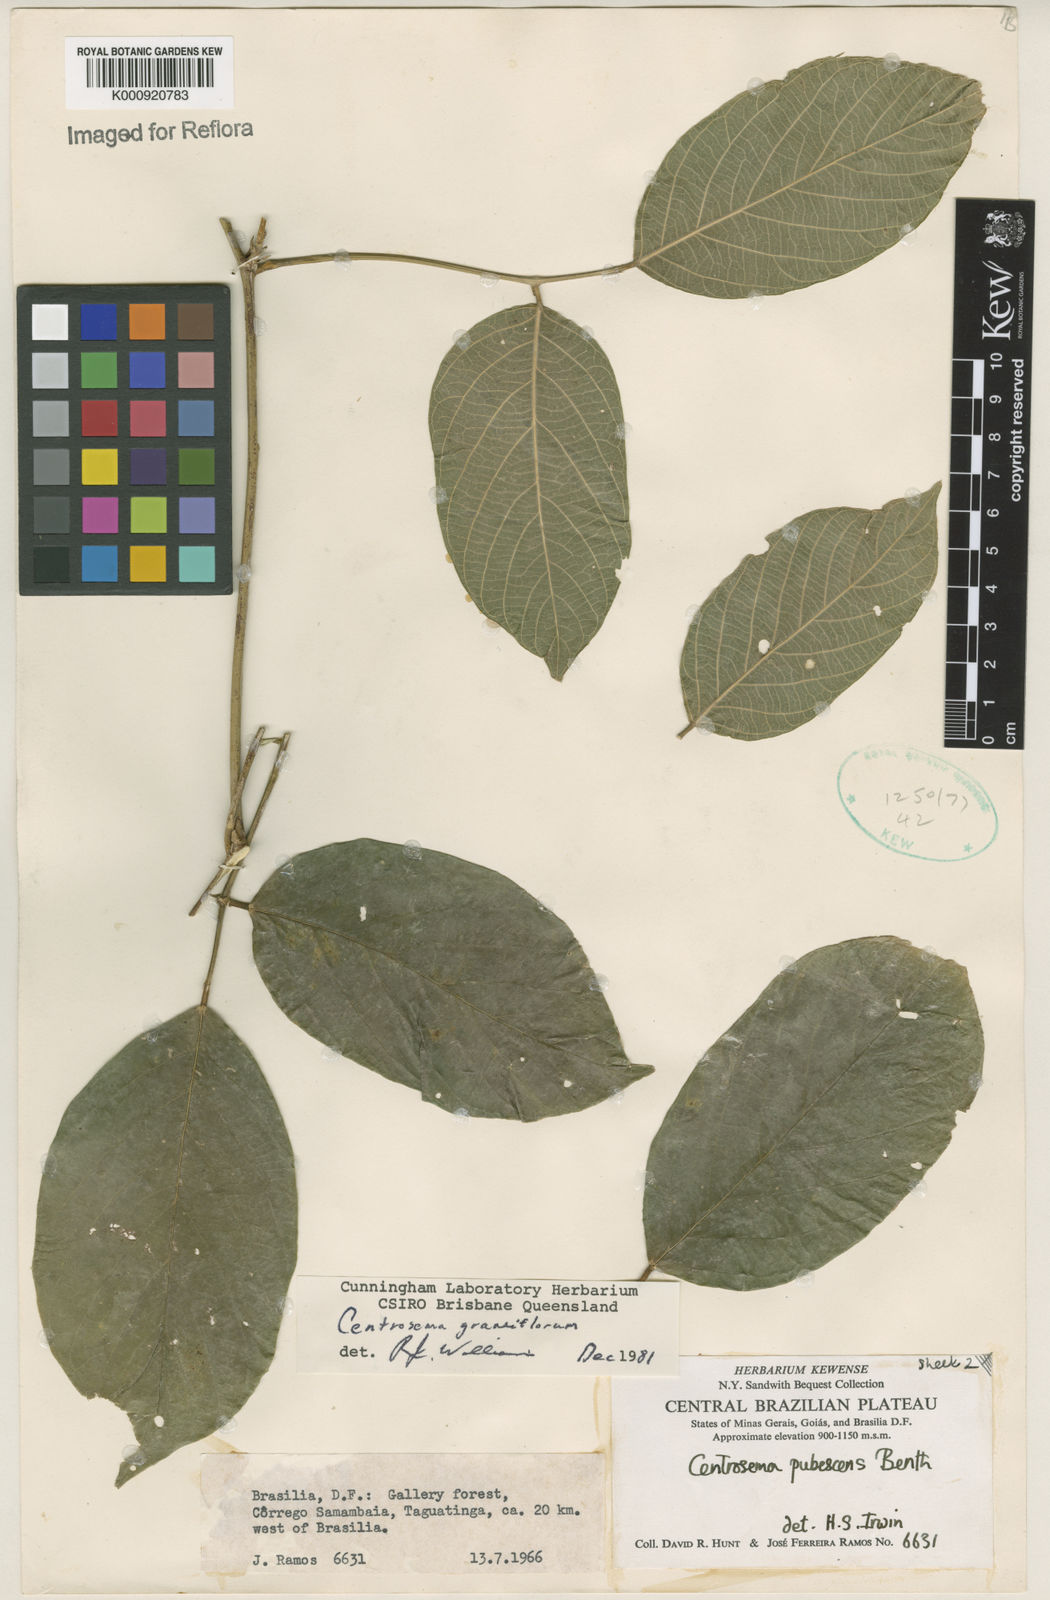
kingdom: Plantae
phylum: Tracheophyta
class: Magnoliopsida
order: Fabales
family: Fabaceae
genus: Centrosema
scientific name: Centrosema grandiflorum
